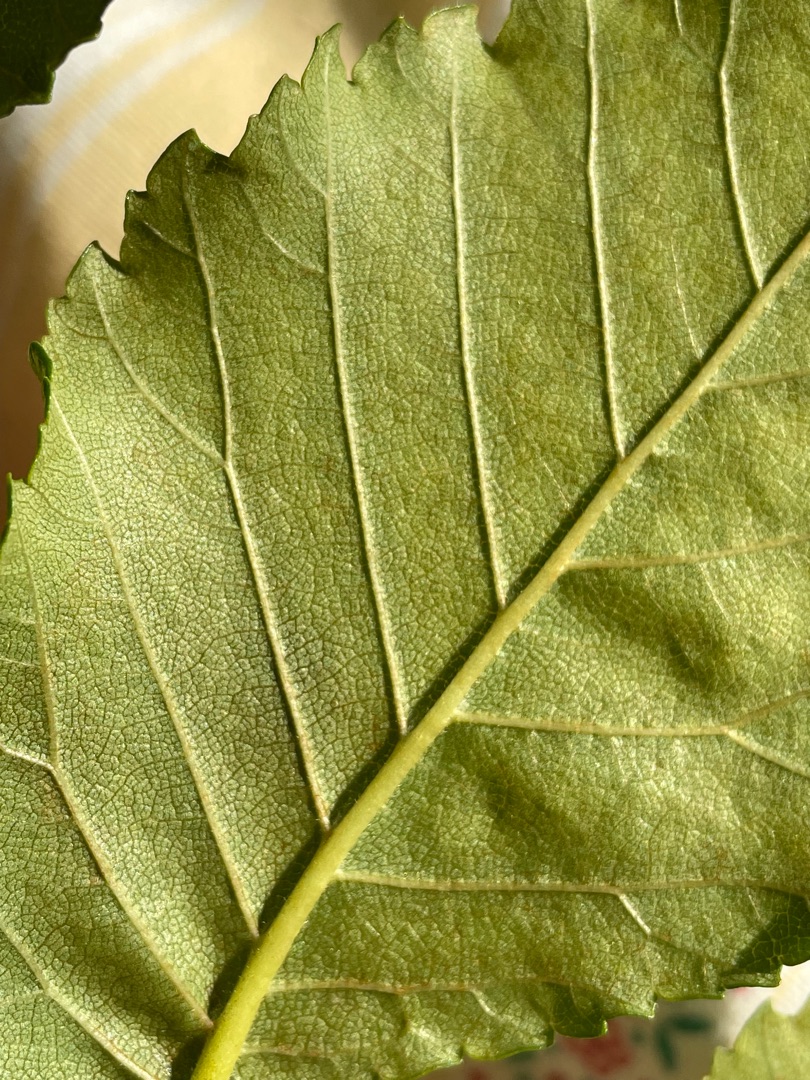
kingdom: Plantae
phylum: Tracheophyta
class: Magnoliopsida
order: Rosales
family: Ulmaceae
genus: Ulmus
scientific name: Ulmus minor
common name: Småbladet elm
